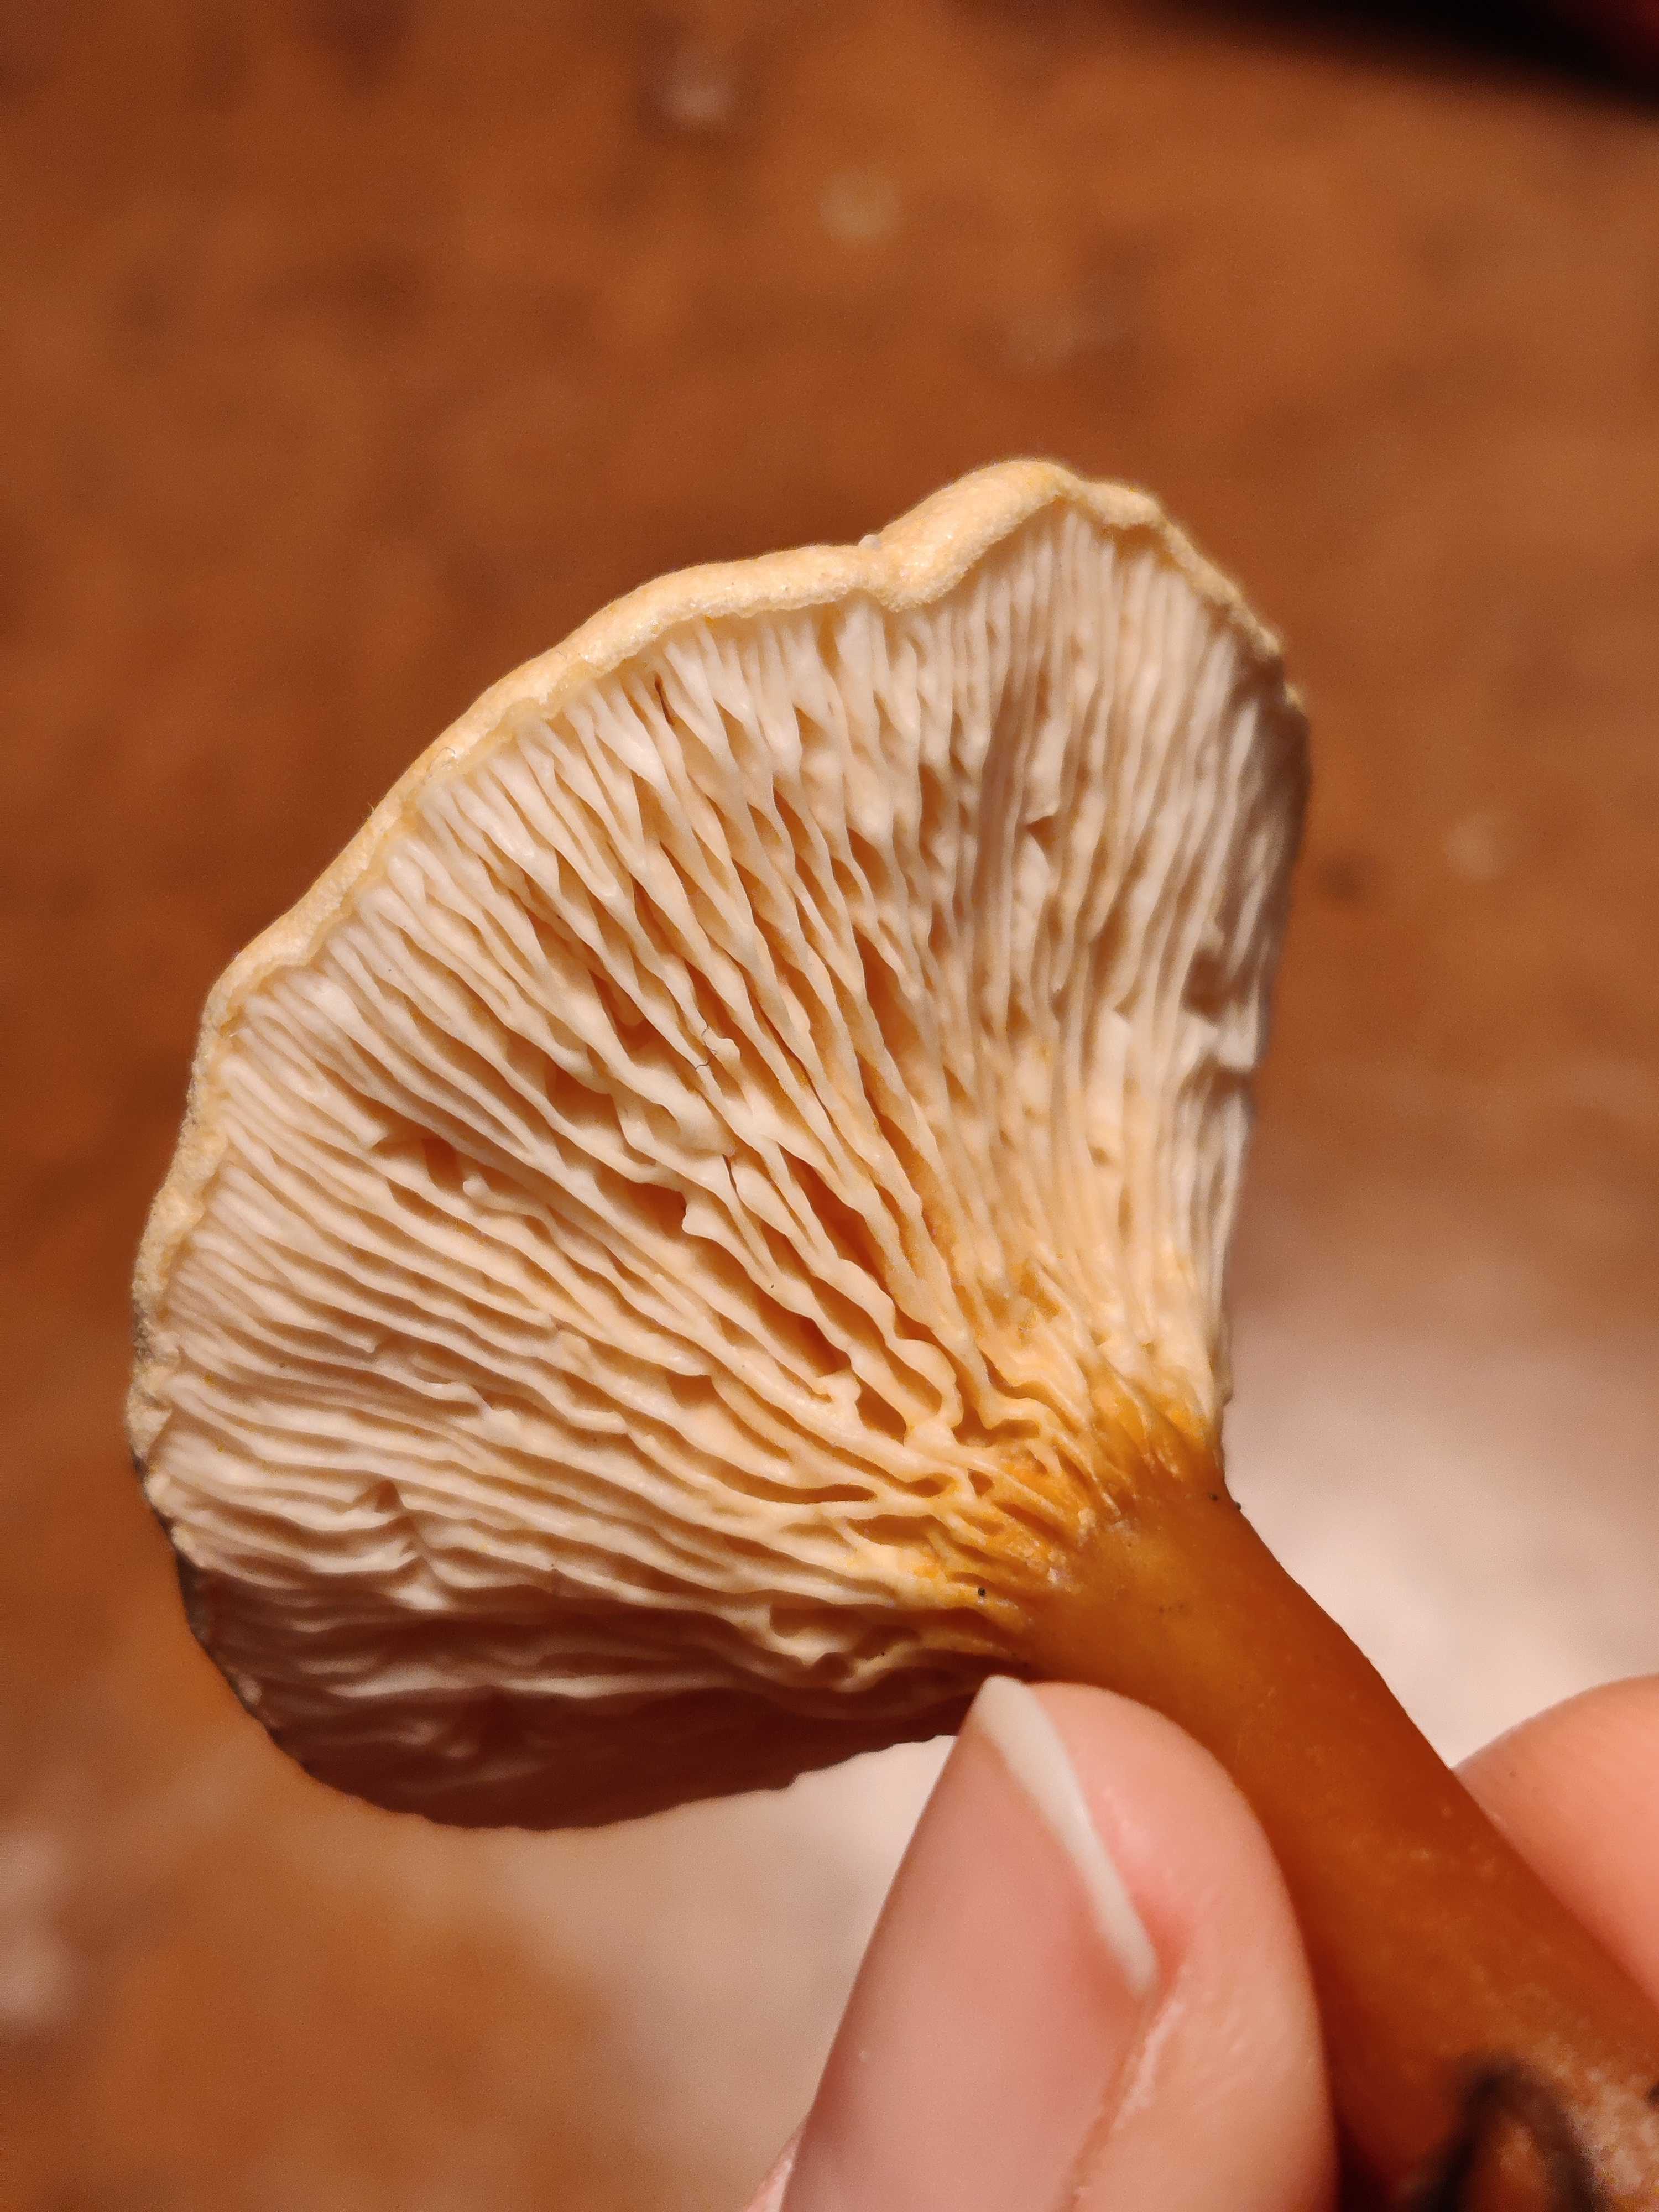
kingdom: Fungi
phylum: Basidiomycota
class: Agaricomycetes
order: Boletales
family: Hygrophoropsidaceae
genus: Hygrophoropsis
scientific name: Hygrophoropsis aurantiaca
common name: almindelig orangekantarel
